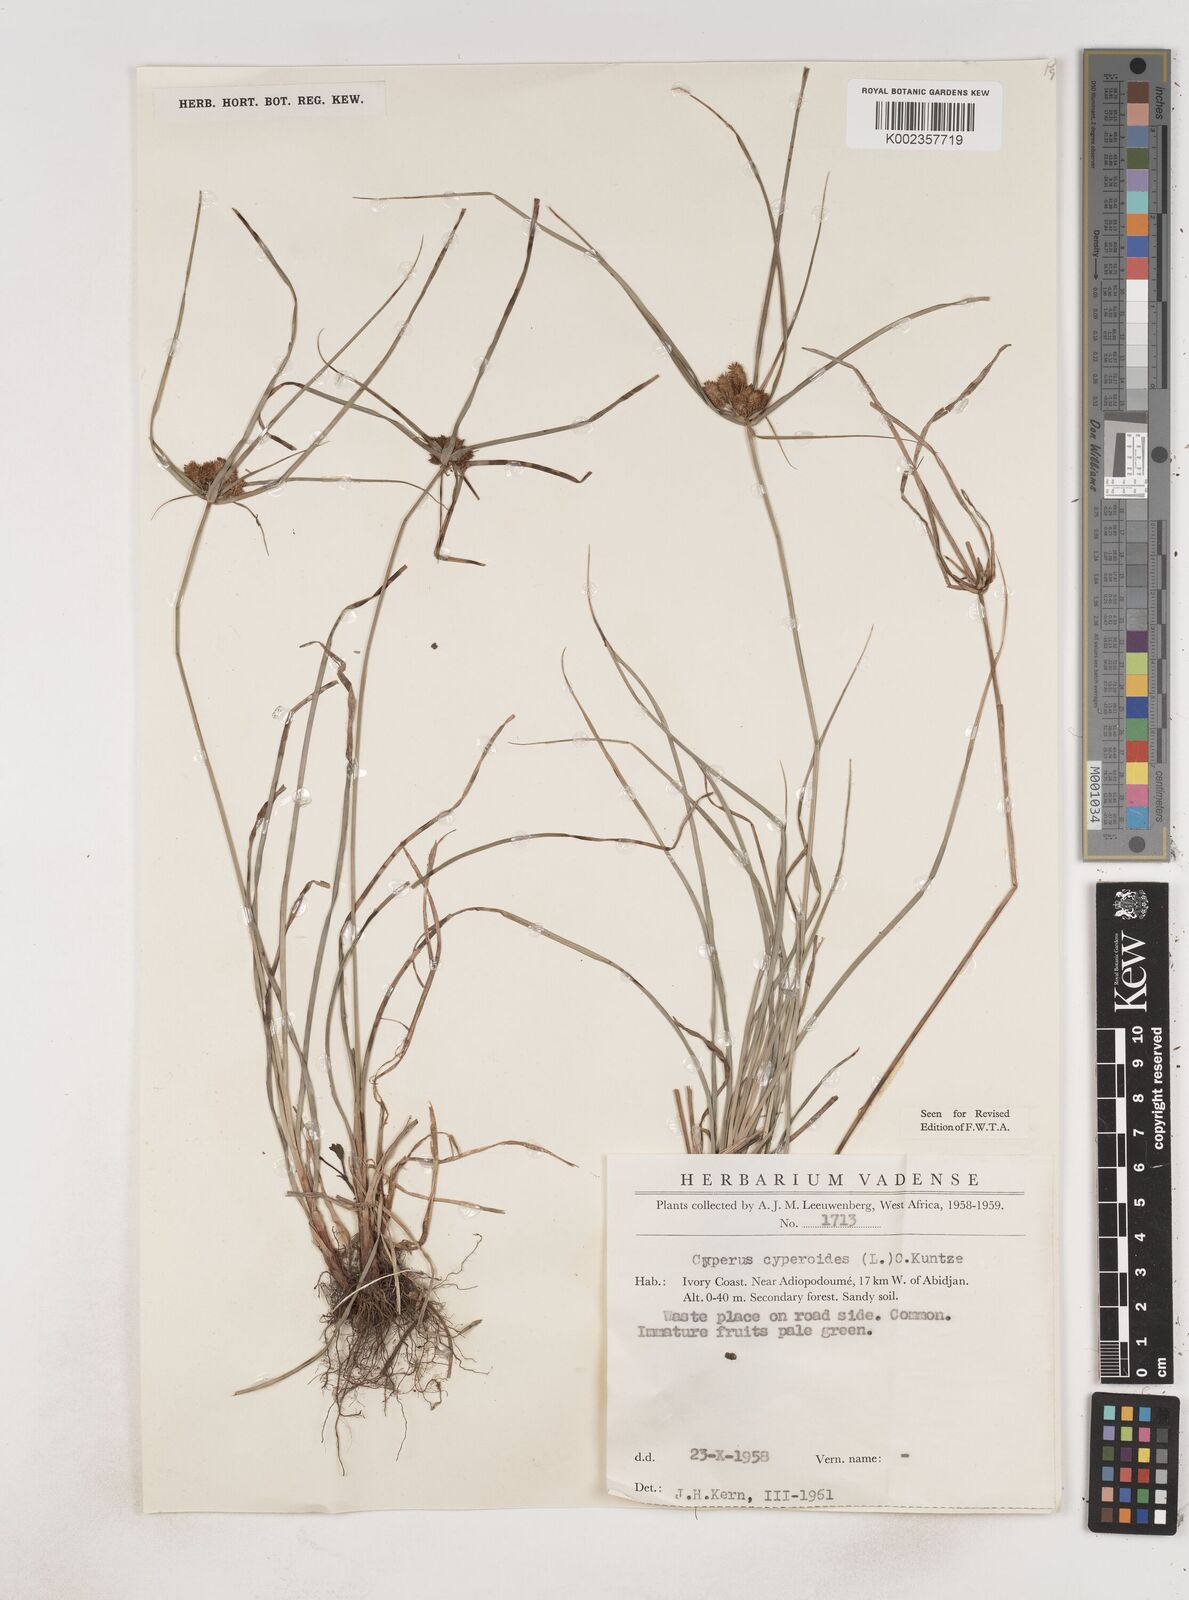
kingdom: Plantae
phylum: Tracheophyta
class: Liliopsida
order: Poales
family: Cyperaceae
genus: Cyperus
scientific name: Cyperus sublimis
